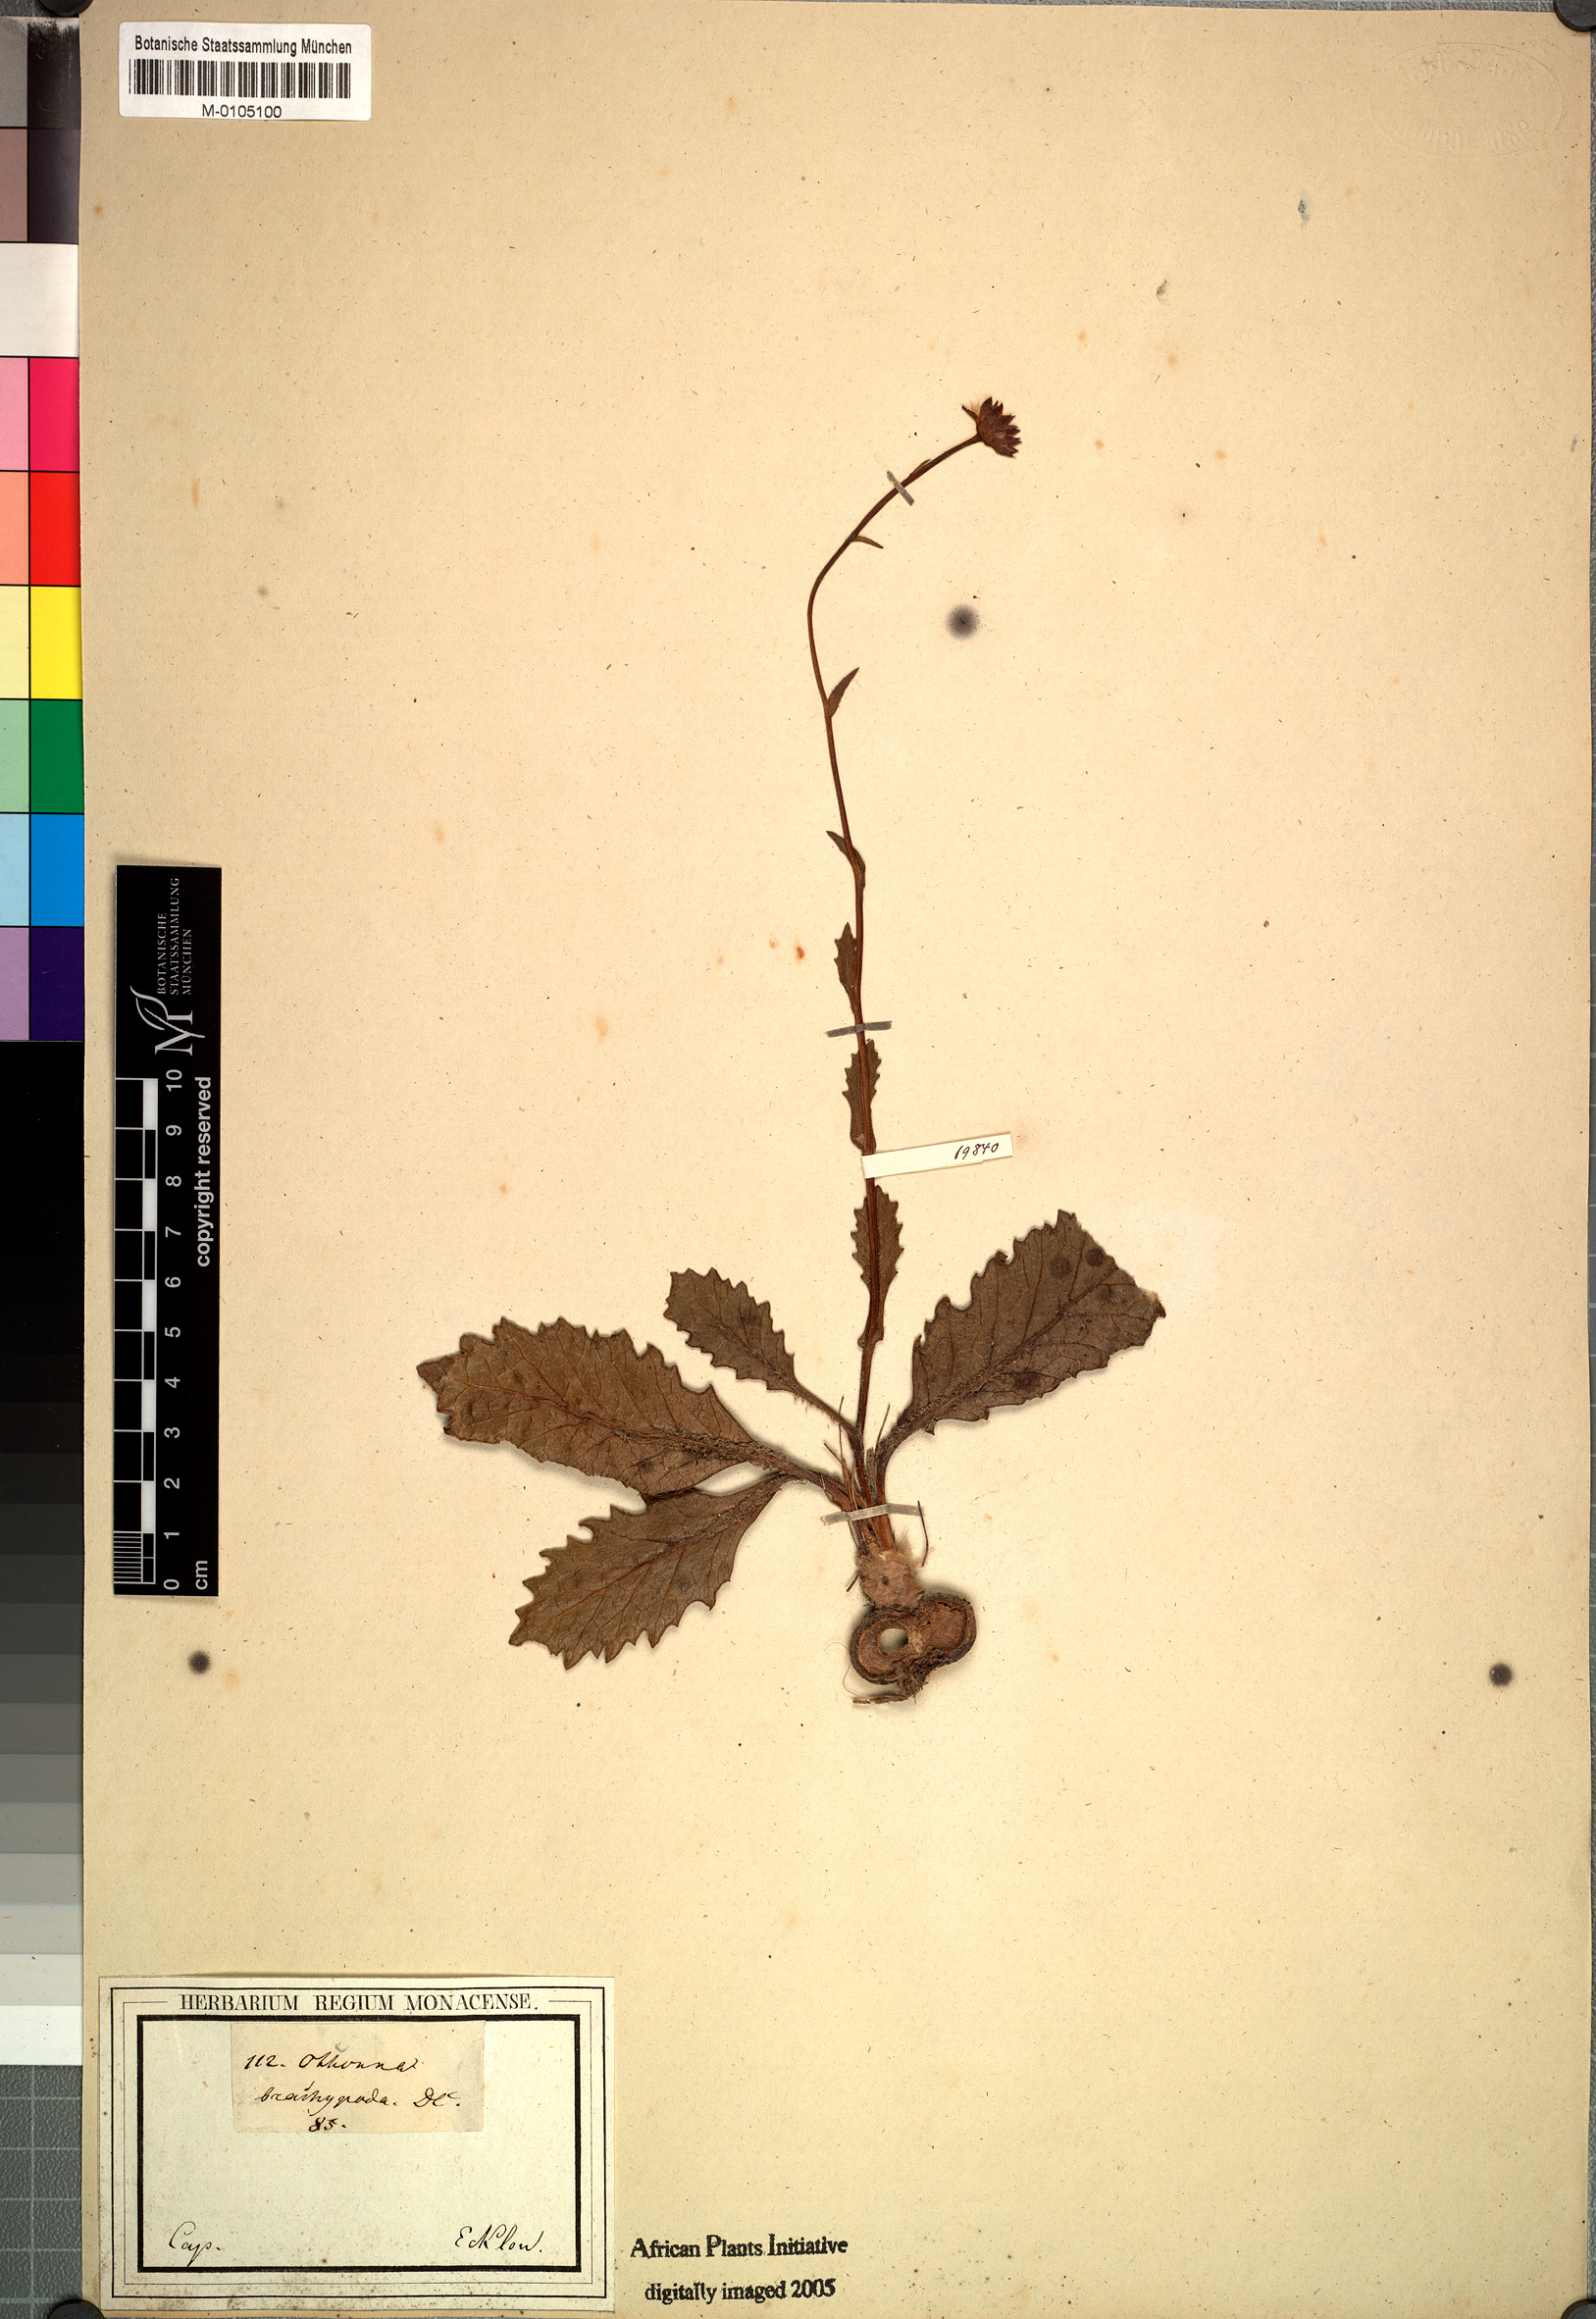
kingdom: Plantae
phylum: Tracheophyta
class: Magnoliopsida
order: Asterales
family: Asteraceae
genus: Othonna
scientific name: Othonna heterophylla
